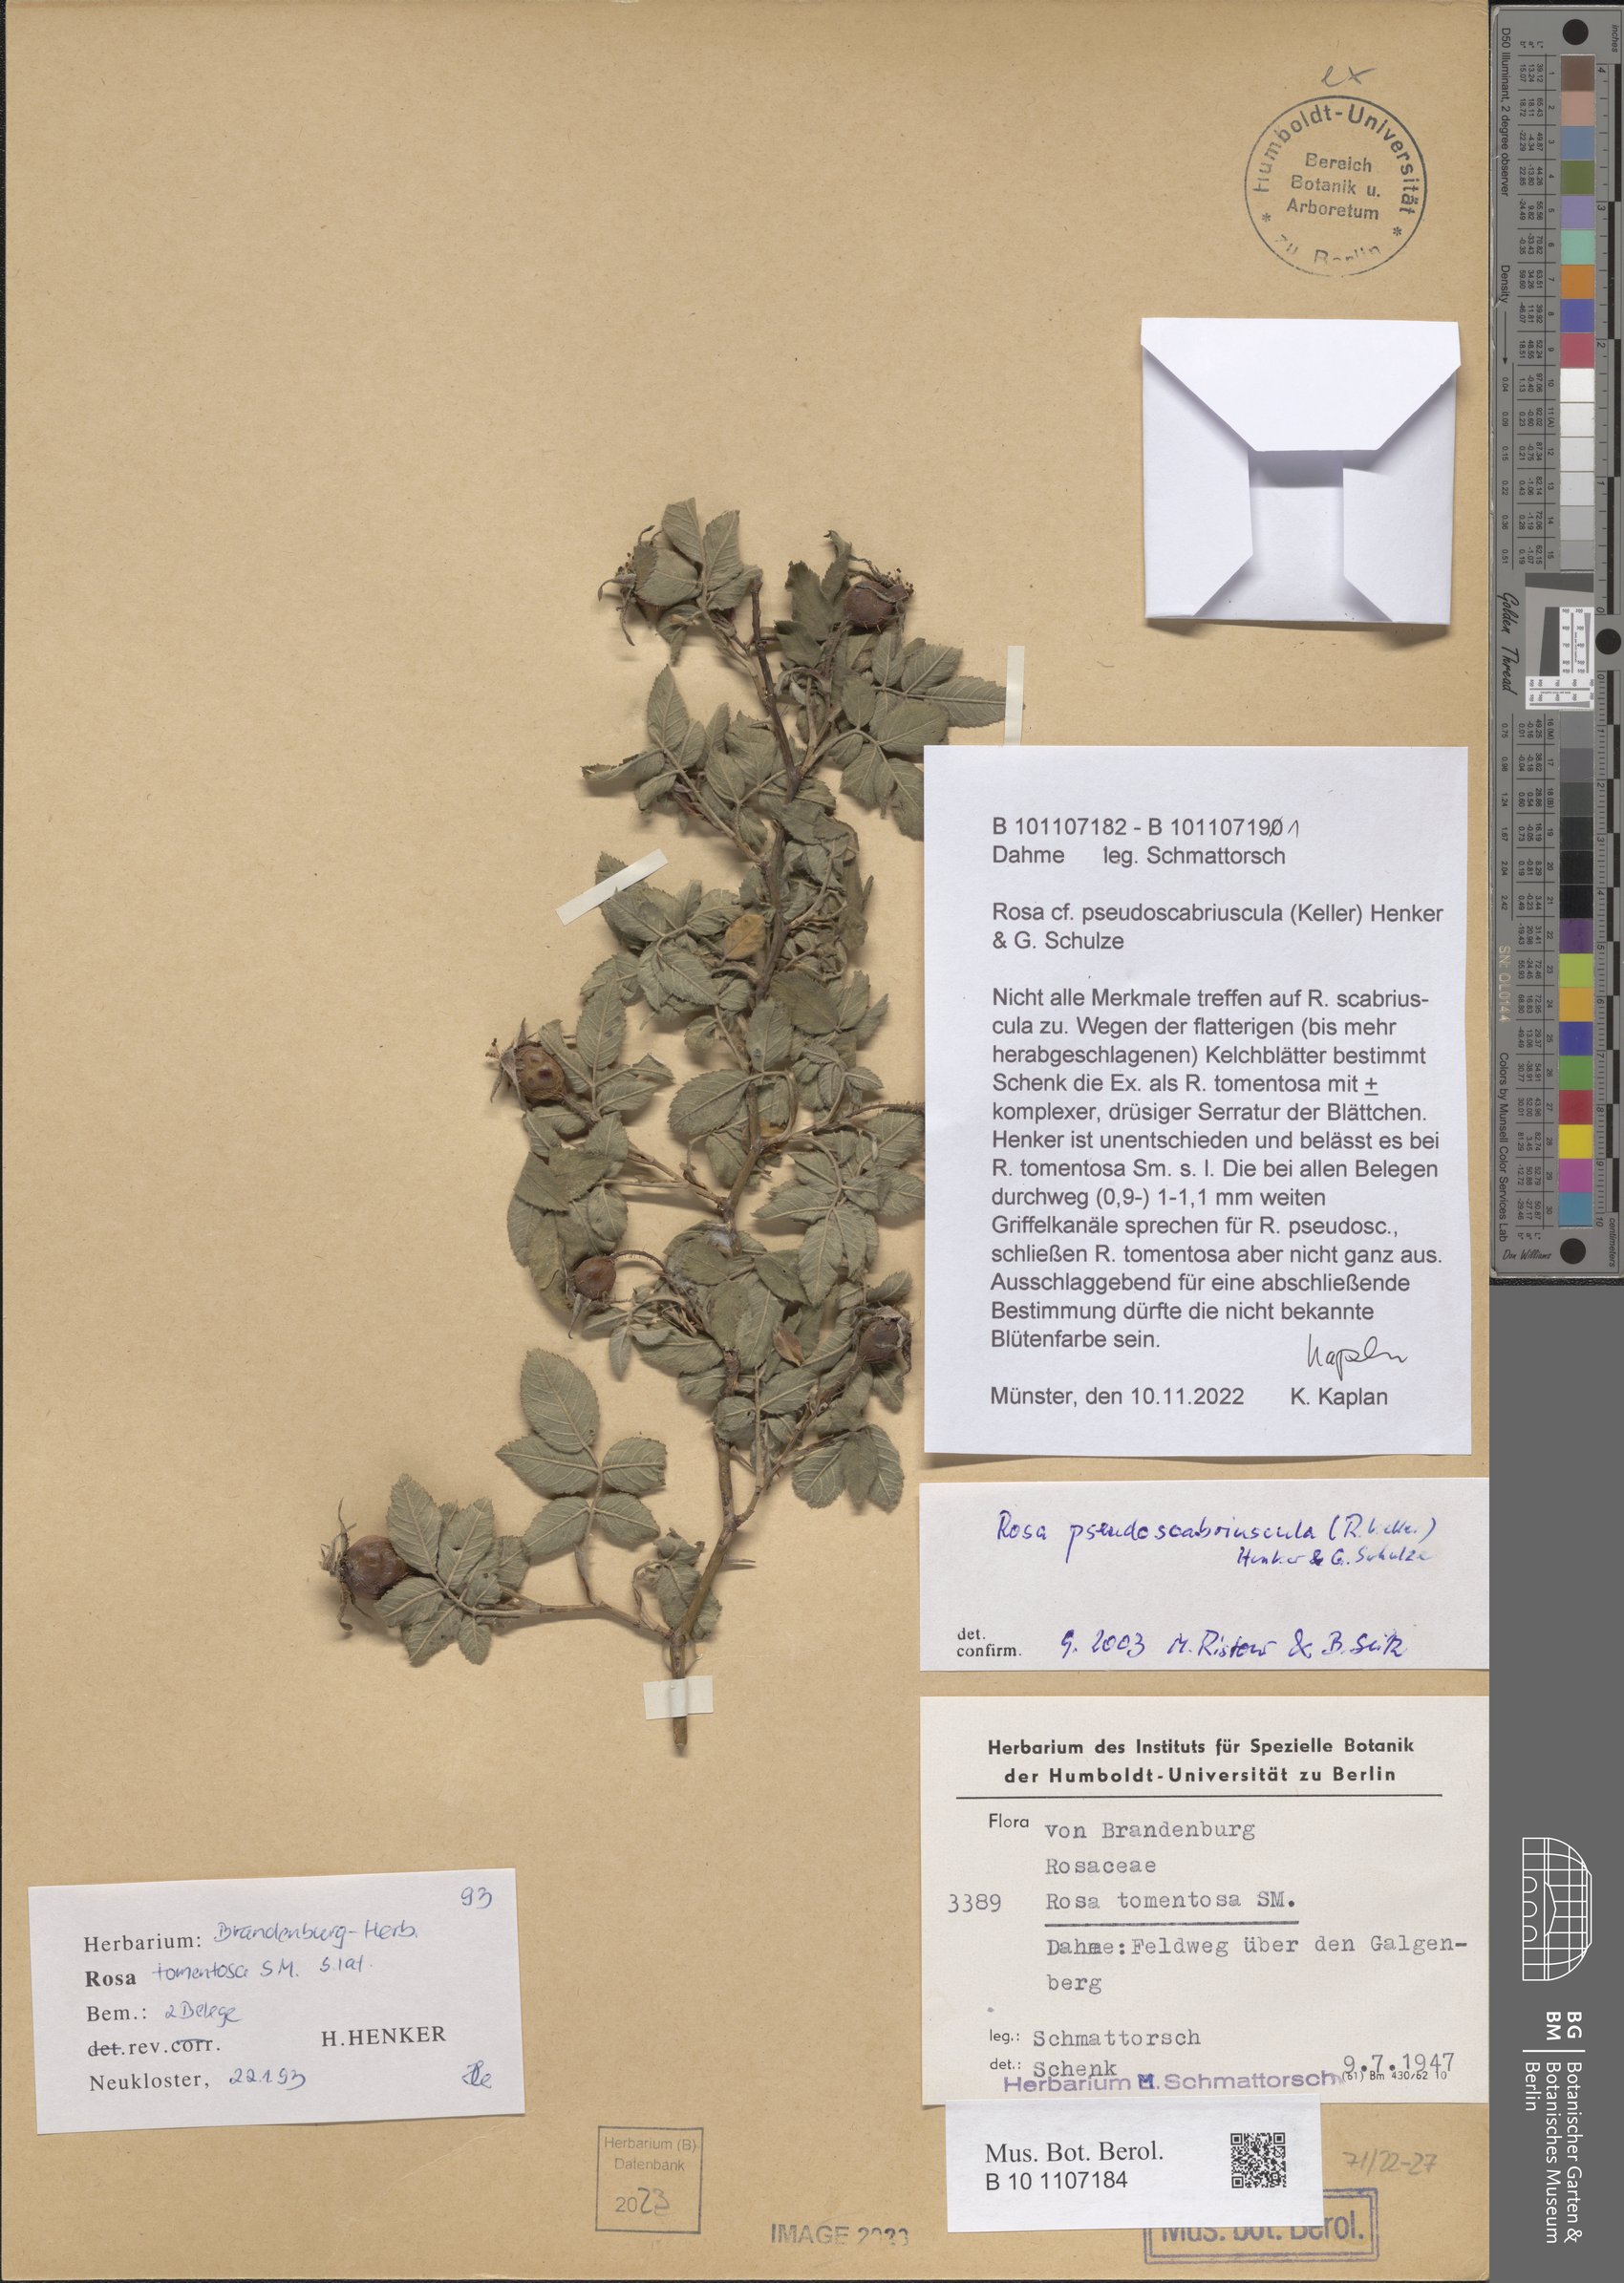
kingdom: Plantae
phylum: Tracheophyta
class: Magnoliopsida
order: Rosales
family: Rosaceae
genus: Rosa
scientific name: Rosa pseudoscabriuscula
